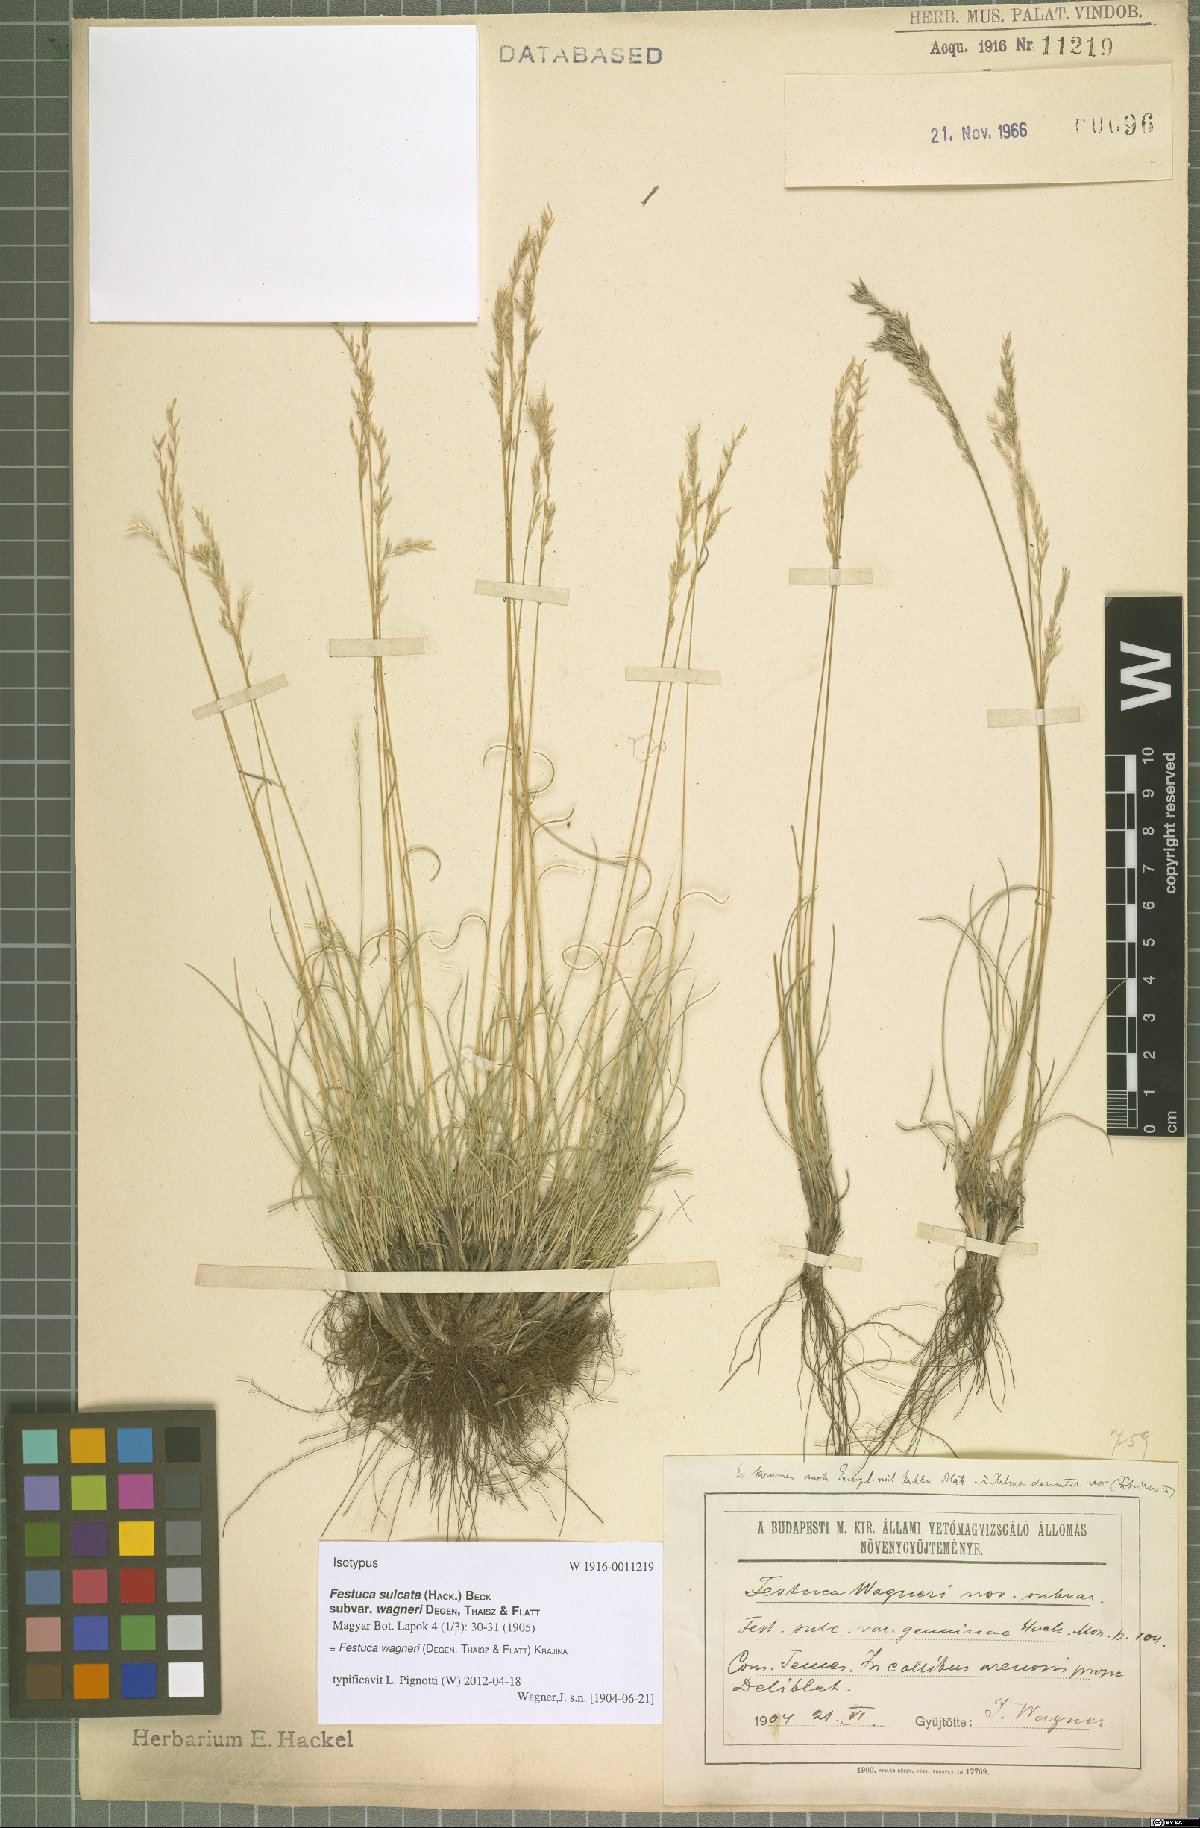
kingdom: Plantae
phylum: Tracheophyta
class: Liliopsida
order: Poales
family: Poaceae
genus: Festuca
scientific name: Festuca wagneri
